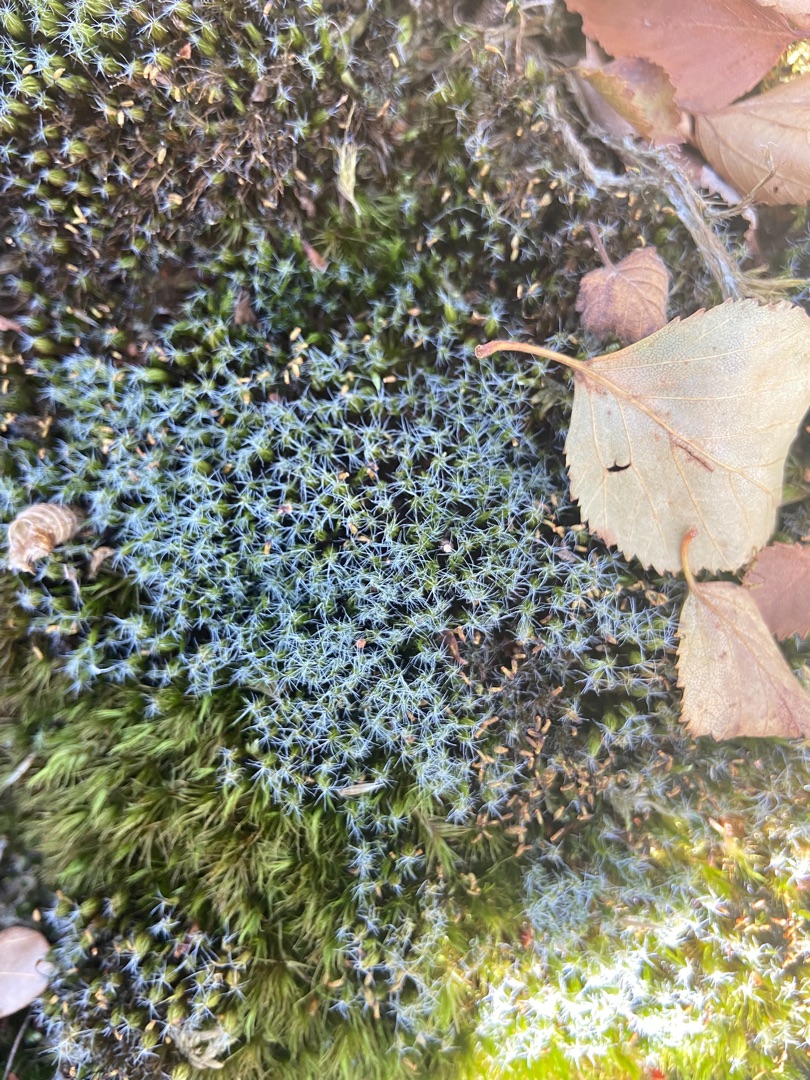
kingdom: Plantae
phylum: Bryophyta
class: Bryopsida
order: Dicranales
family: Leucobryaceae
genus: Campylopus
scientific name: Campylopus introflexus
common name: Stjerne-bredribbe
